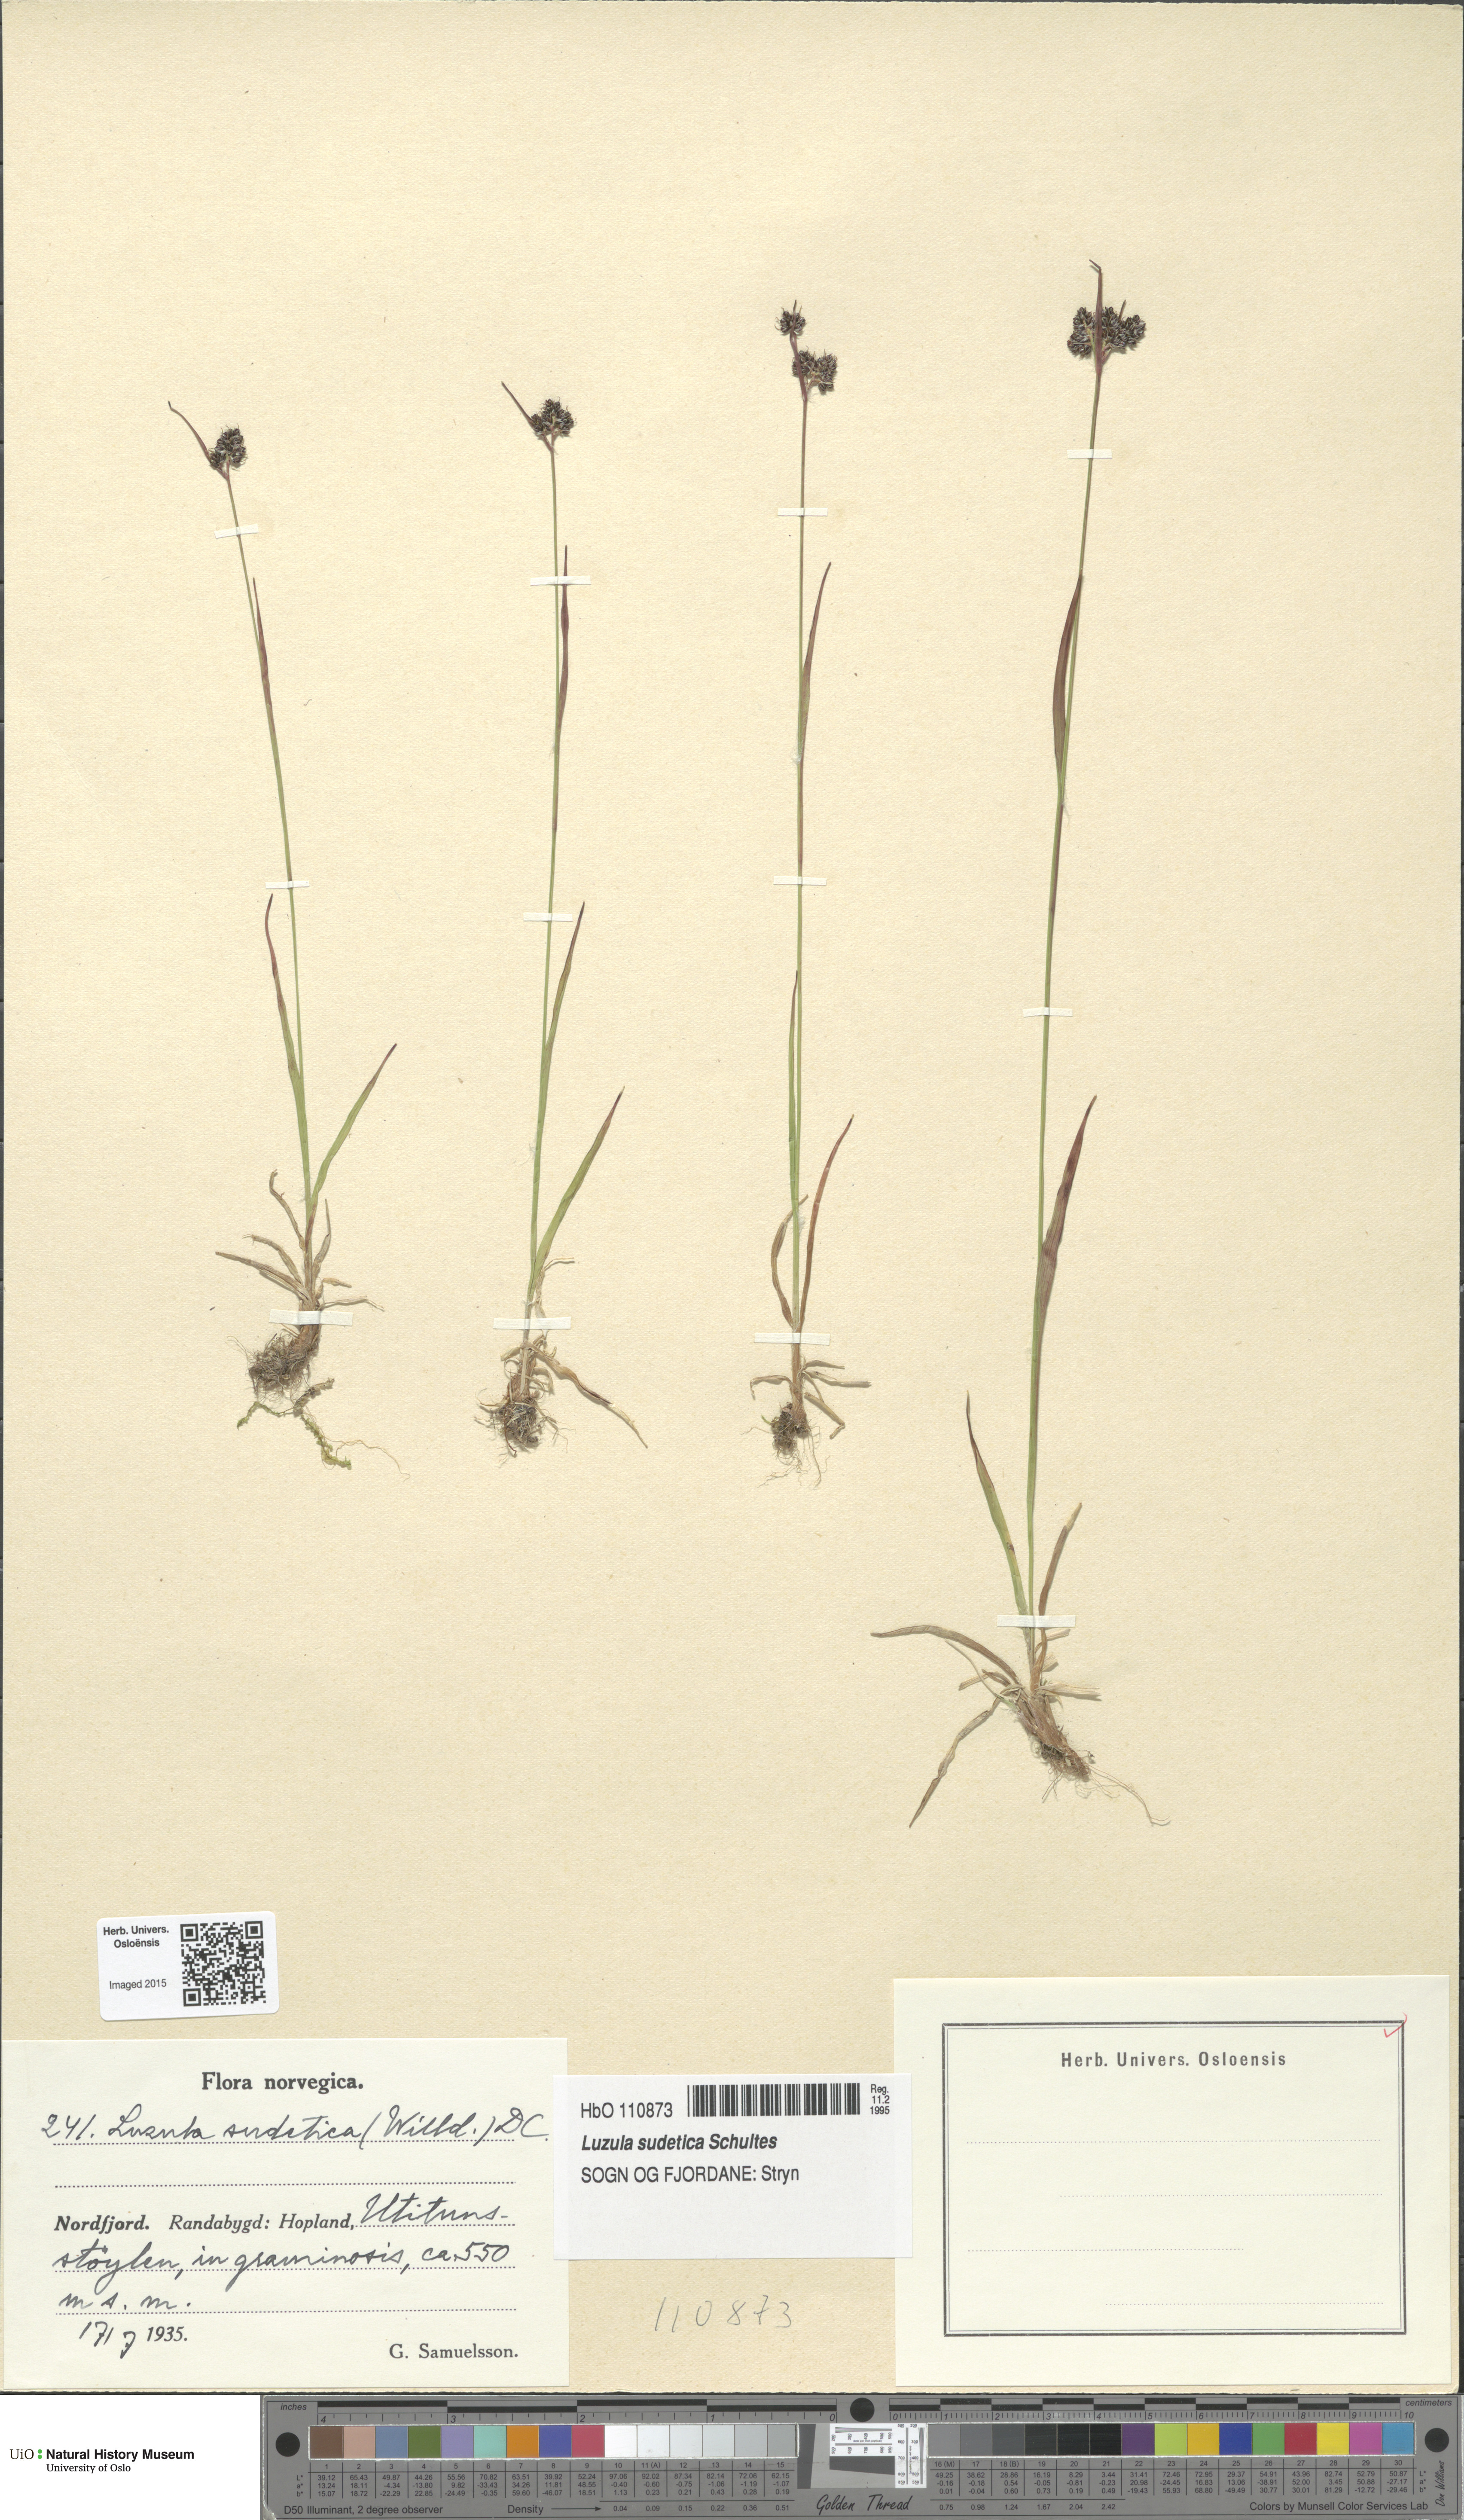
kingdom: Plantae
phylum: Tracheophyta
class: Liliopsida
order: Poales
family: Juncaceae
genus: Luzula
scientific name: Luzula sudetica
